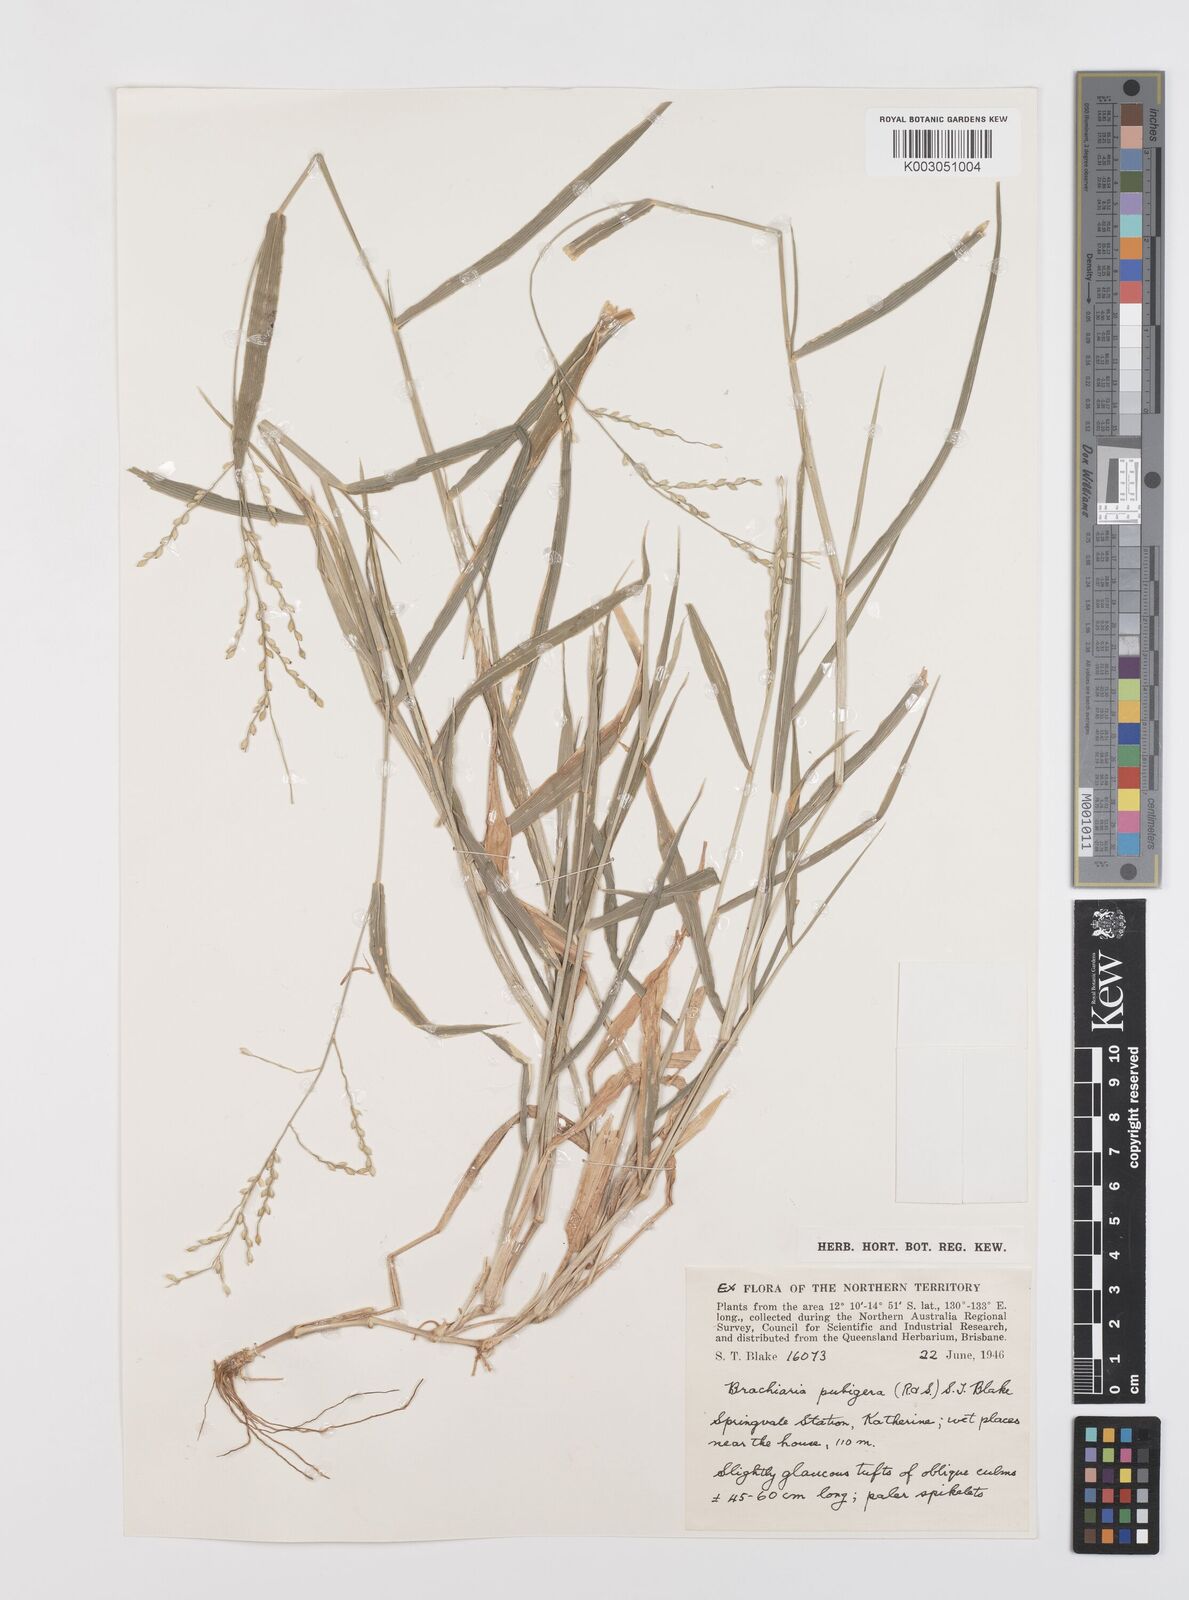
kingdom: Plantae
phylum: Tracheophyta
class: Liliopsida
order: Poales
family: Poaceae
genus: Urochloa
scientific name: Urochloa pubigera
